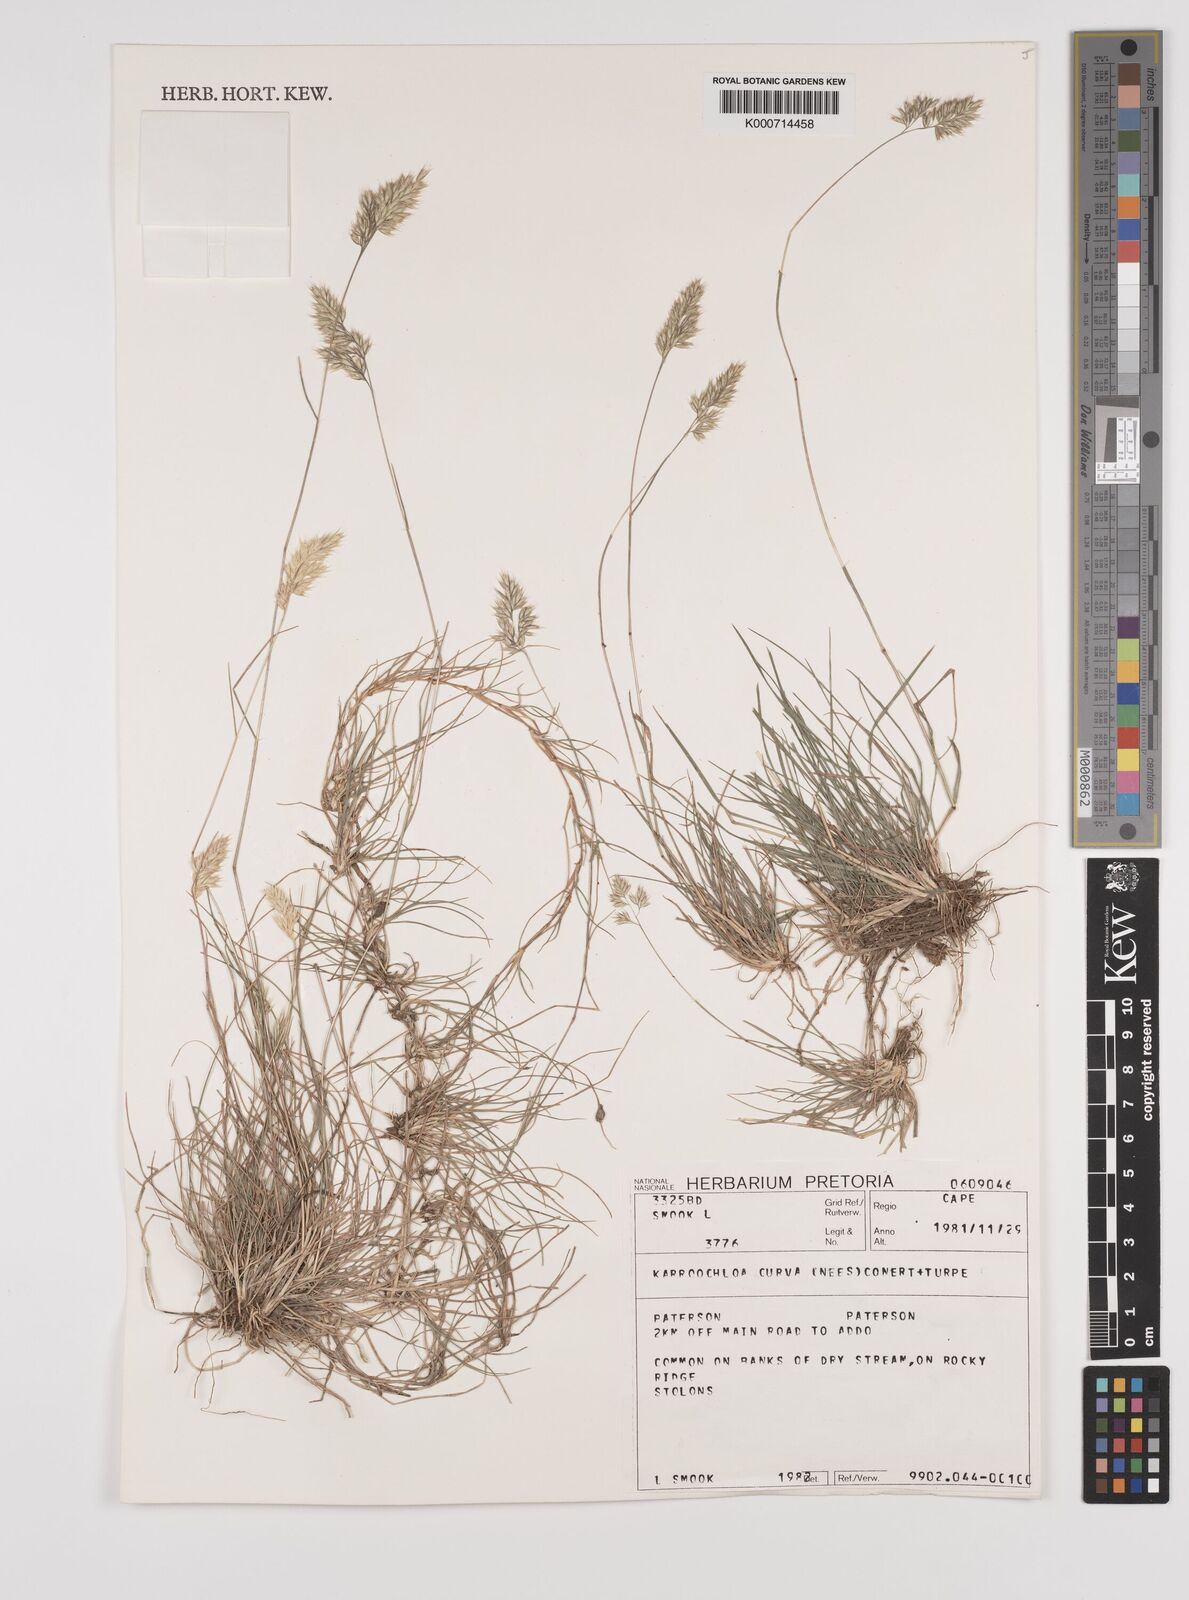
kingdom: Plantae
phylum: Tracheophyta
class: Liliopsida
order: Poales
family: Poaceae
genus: Rytidosperma
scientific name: Rytidosperma
